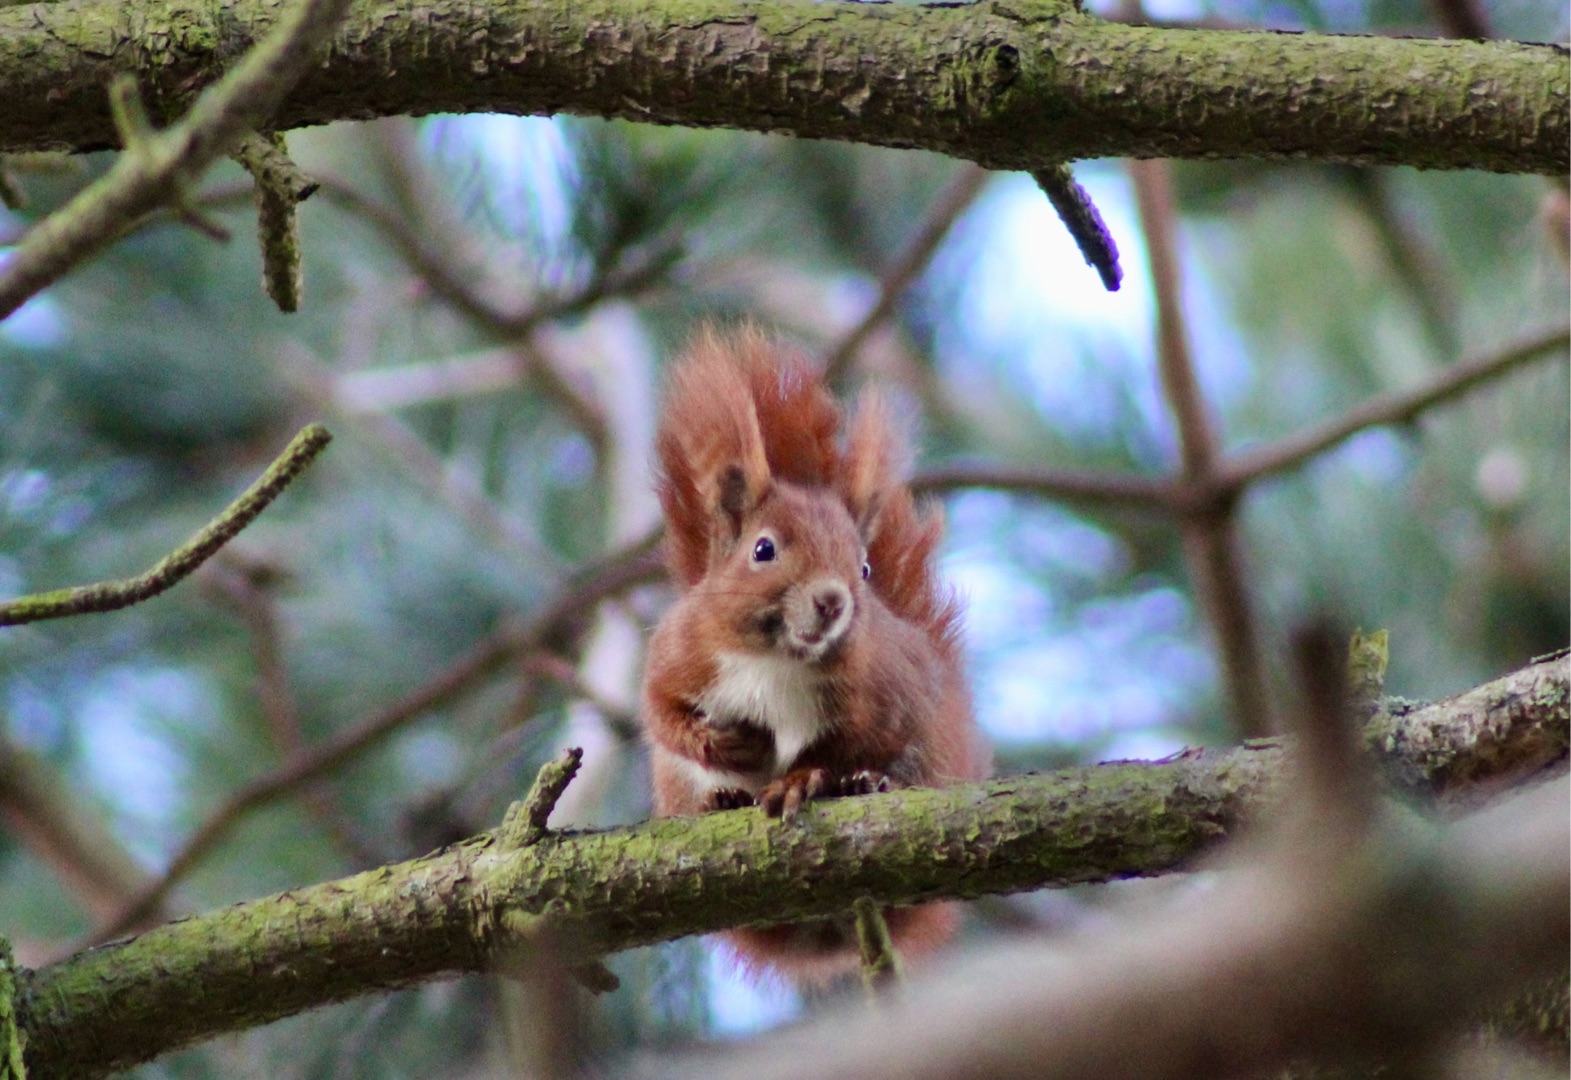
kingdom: Animalia
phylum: Chordata
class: Mammalia
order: Rodentia
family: Sciuridae
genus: Sciurus
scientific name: Sciurus vulgaris
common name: Egern
